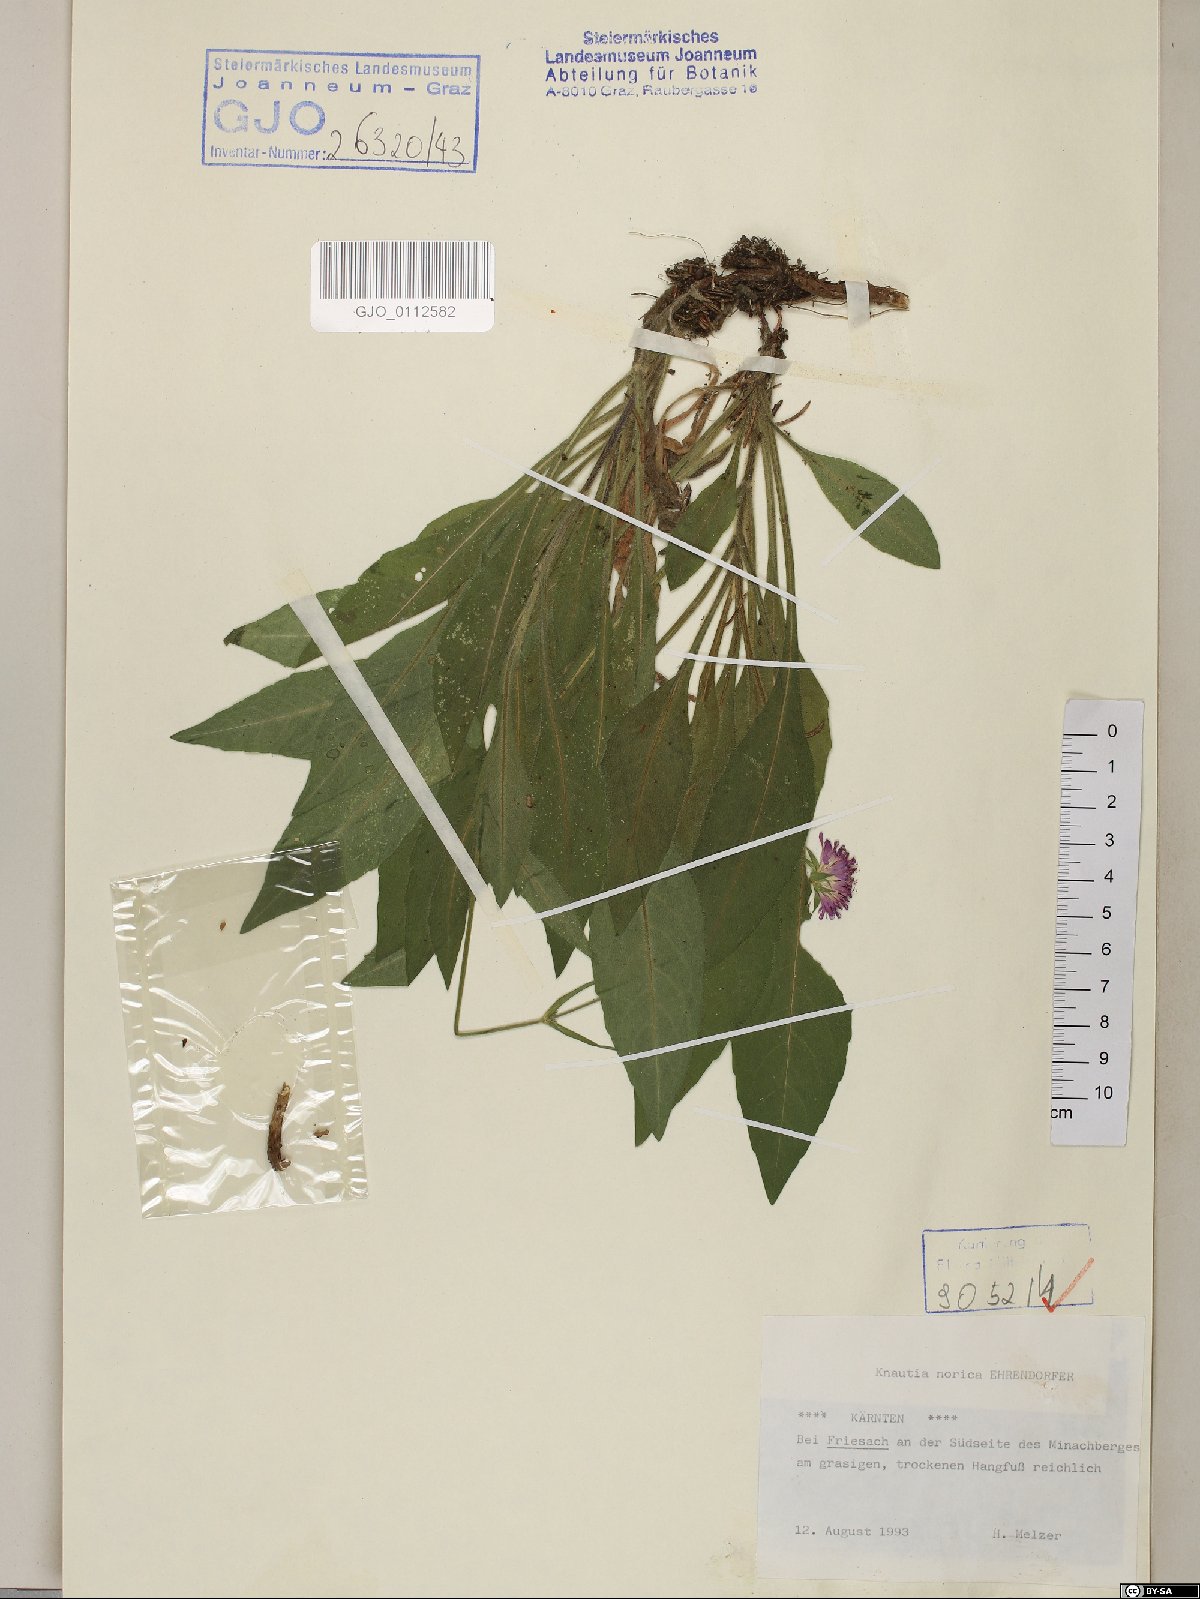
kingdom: Plantae
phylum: Tracheophyta
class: Magnoliopsida
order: Dipsacales
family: Caprifoliaceae
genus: Knautia
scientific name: Knautia norica
